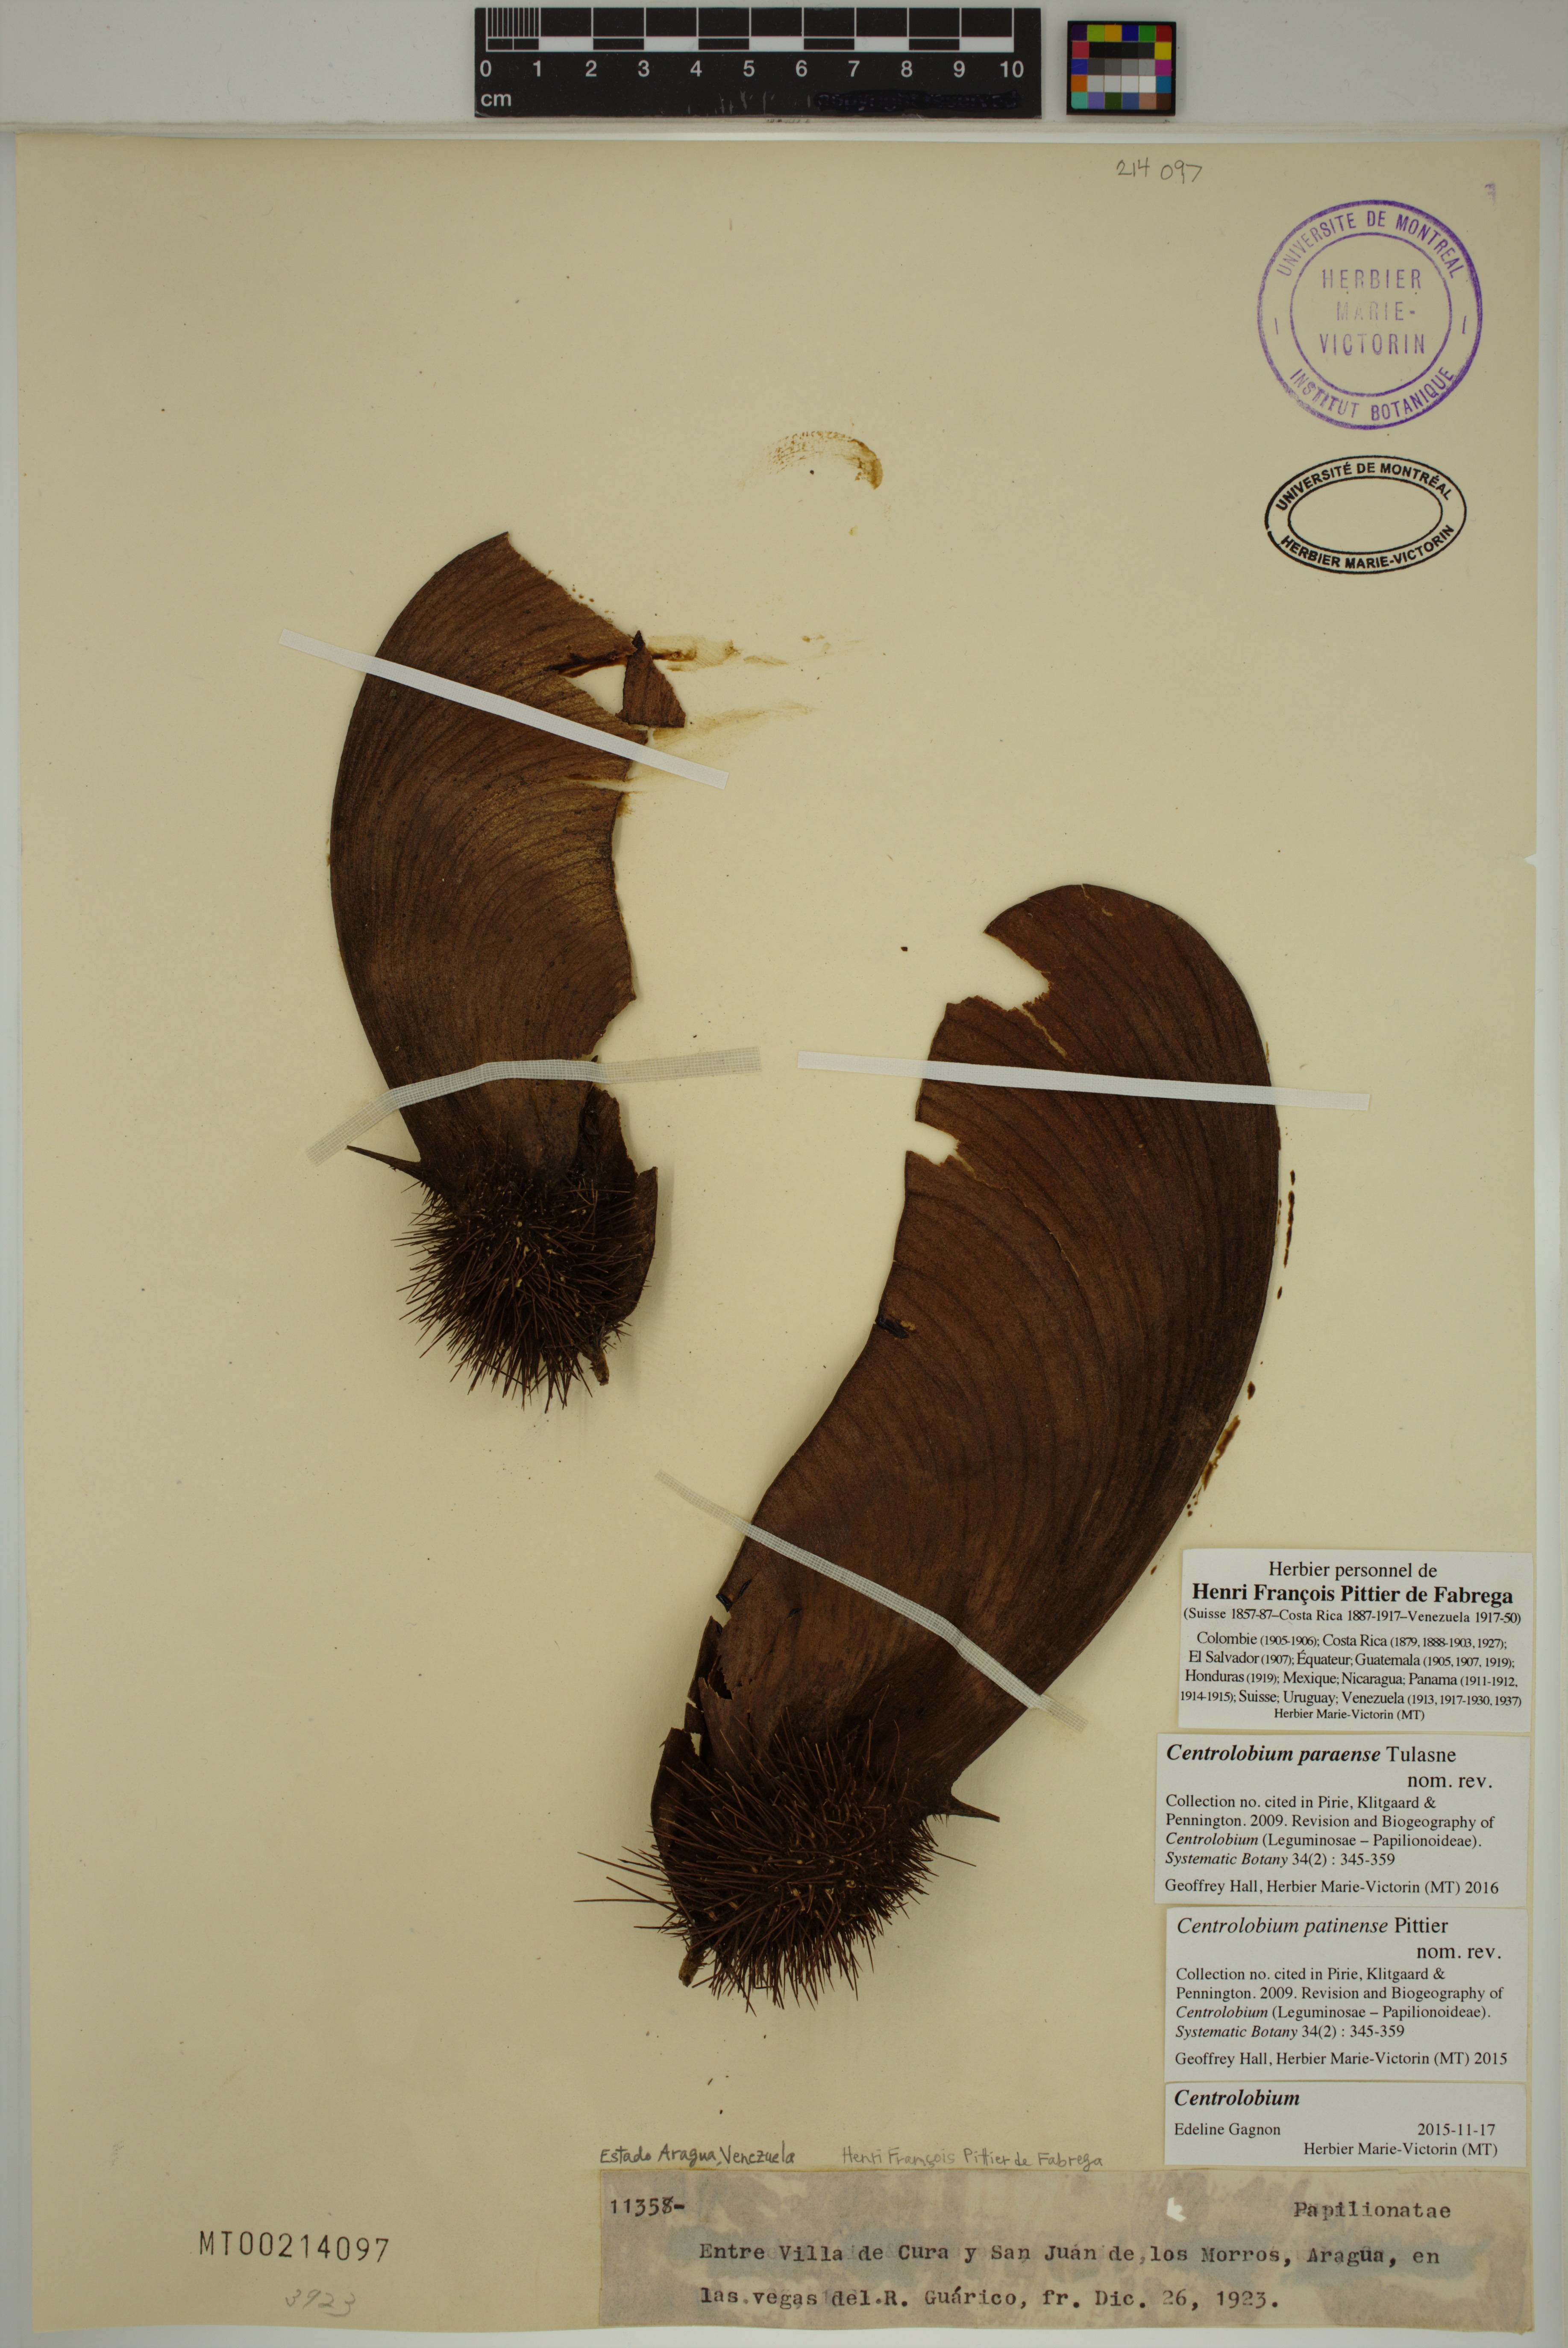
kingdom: Plantae
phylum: Tracheophyta
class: Magnoliopsida
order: Fabales
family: Fabaceae
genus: Centrolobium
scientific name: Centrolobium paraense
